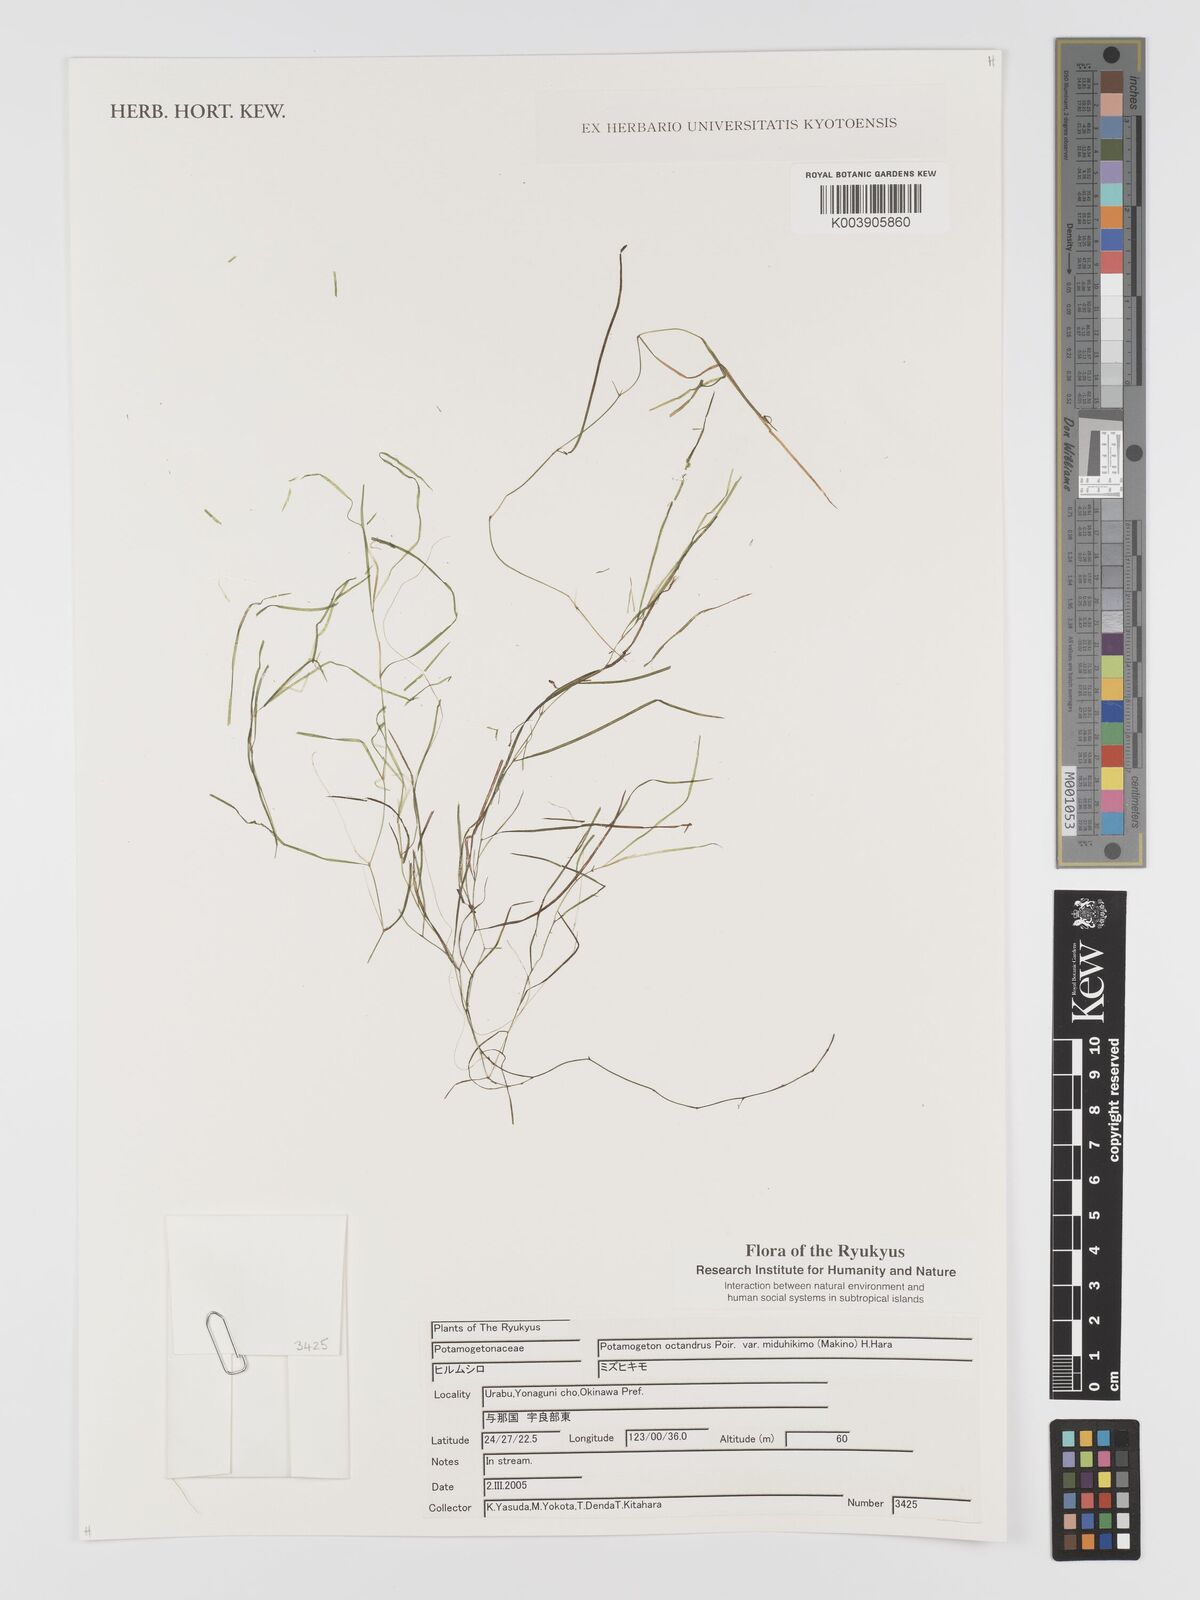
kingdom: Plantae
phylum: Tracheophyta
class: Liliopsida
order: Alismatales
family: Potamogetonaceae
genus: Potamogeton
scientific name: Potamogeton octandrus
